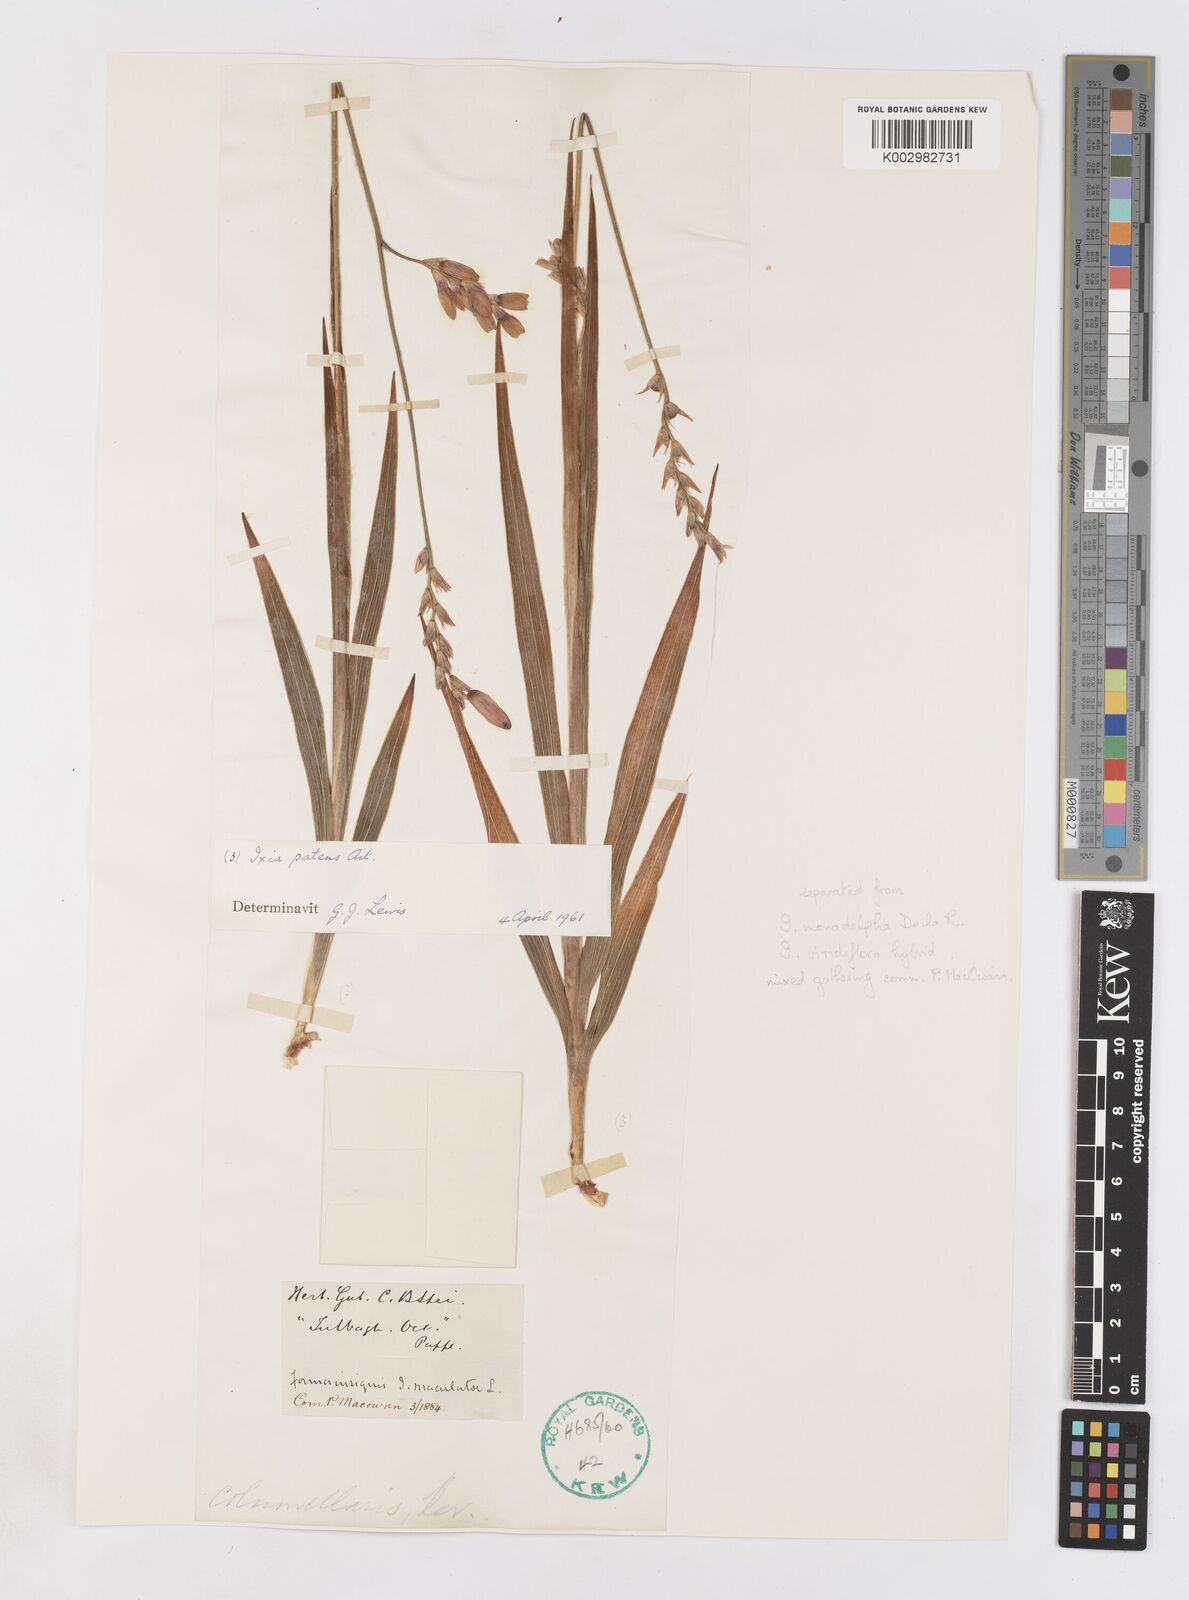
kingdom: Plantae
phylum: Tracheophyta
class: Liliopsida
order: Asparagales
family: Iridaceae
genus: Ixia
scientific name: Ixia patens
